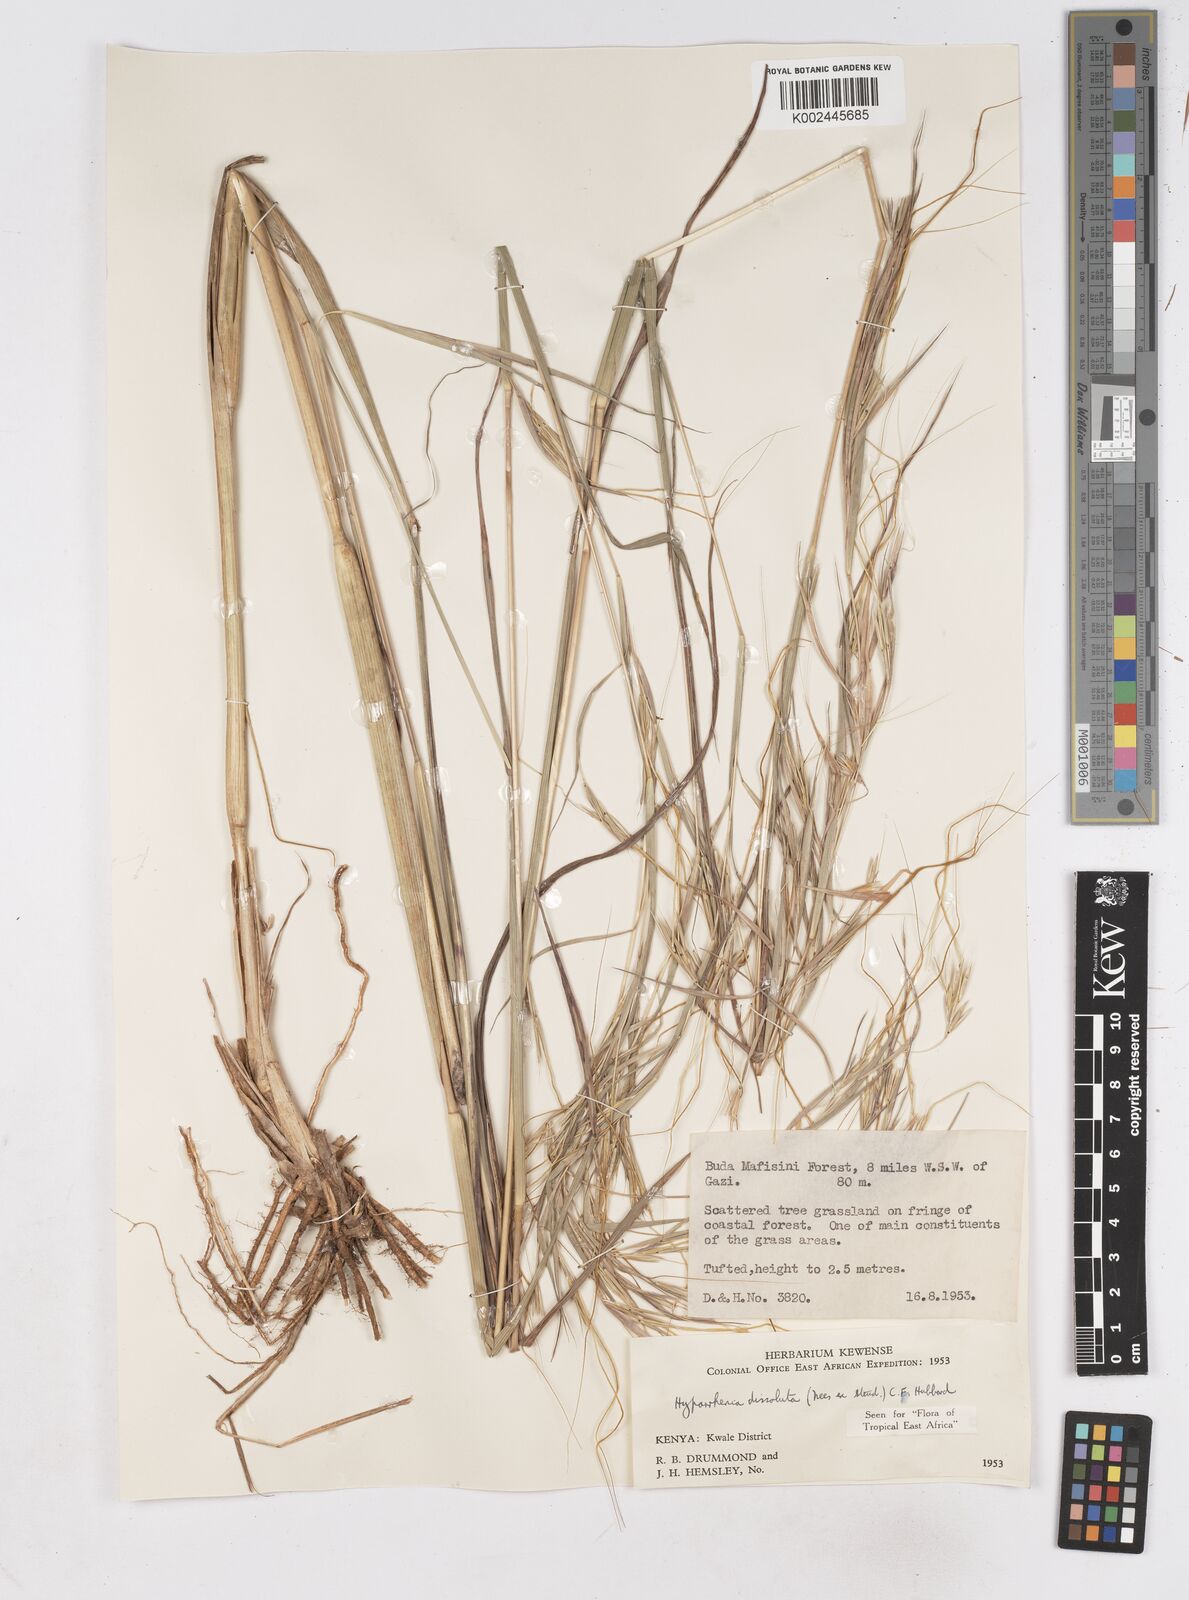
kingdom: Plantae
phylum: Tracheophyta
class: Liliopsida
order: Poales
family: Poaceae
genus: Hyperthelia
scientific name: Hyperthelia dissoluta
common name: Yellow thatching grass
